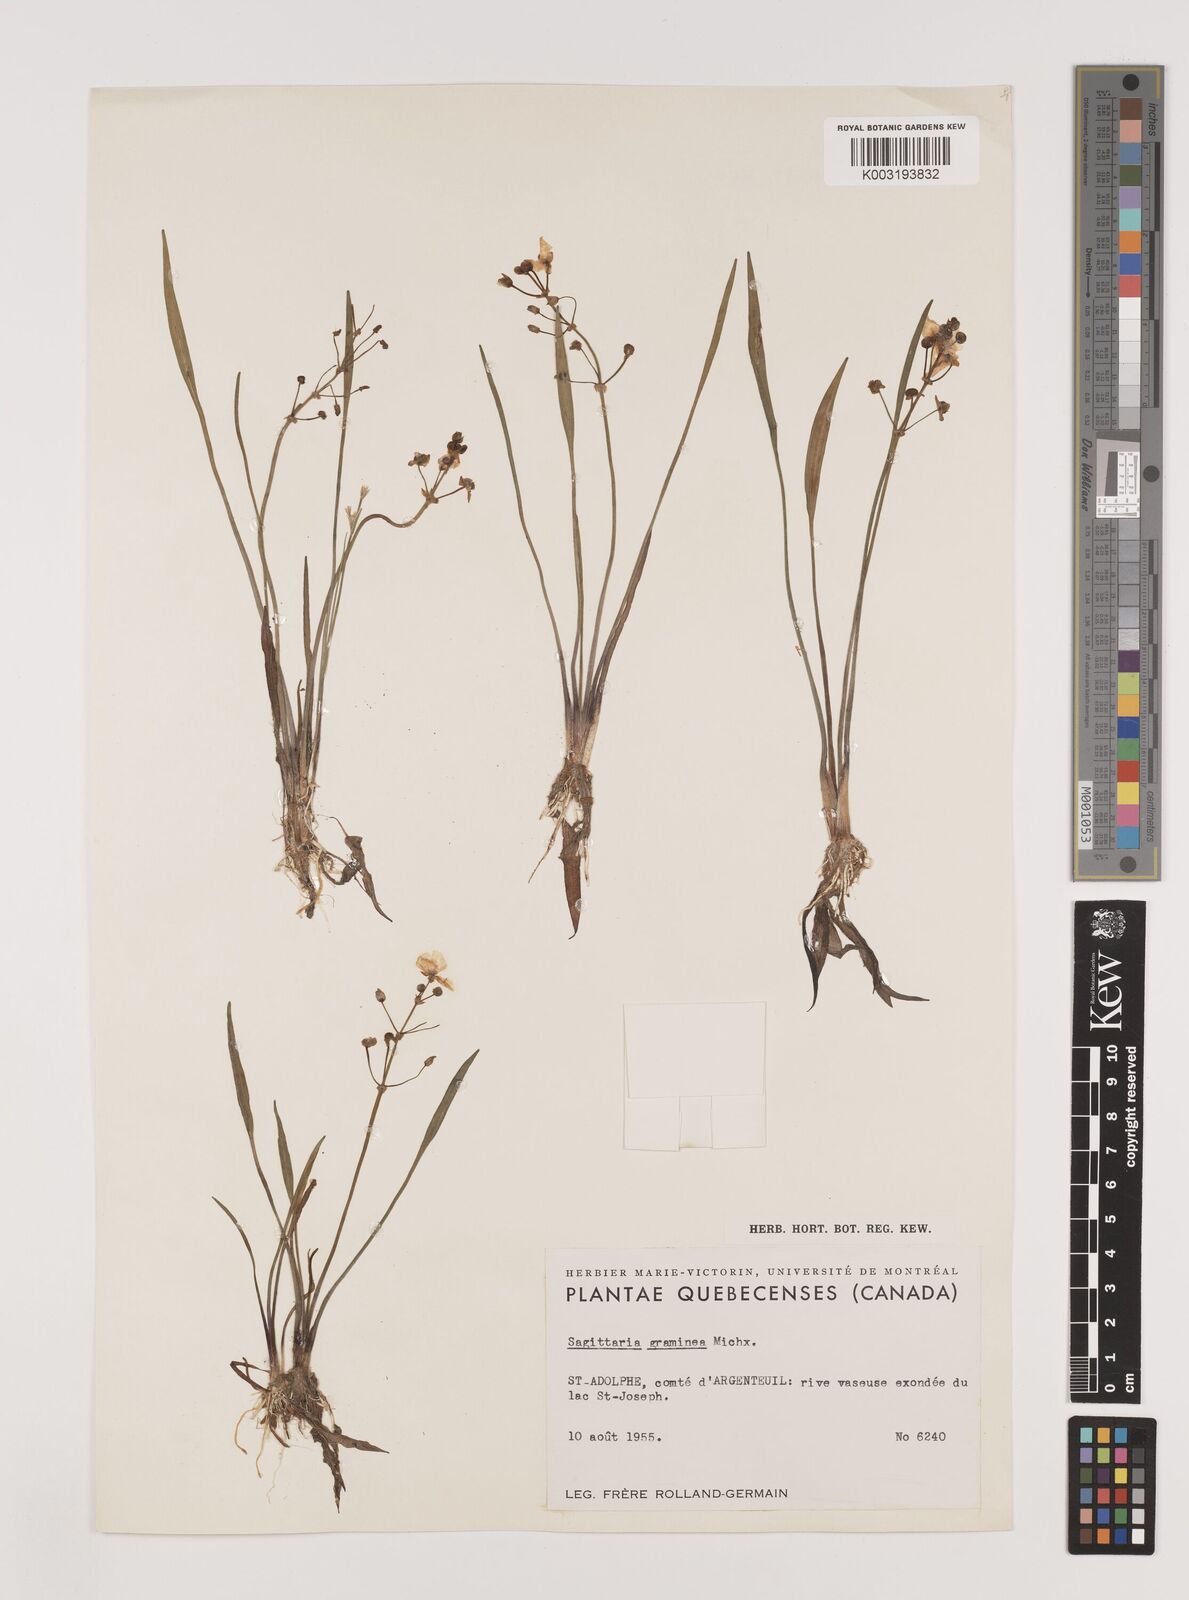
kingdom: Plantae
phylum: Tracheophyta
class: Liliopsida
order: Alismatales
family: Alismataceae
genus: Sagittaria
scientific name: Sagittaria graminea
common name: Grass-leaved arrowhead
